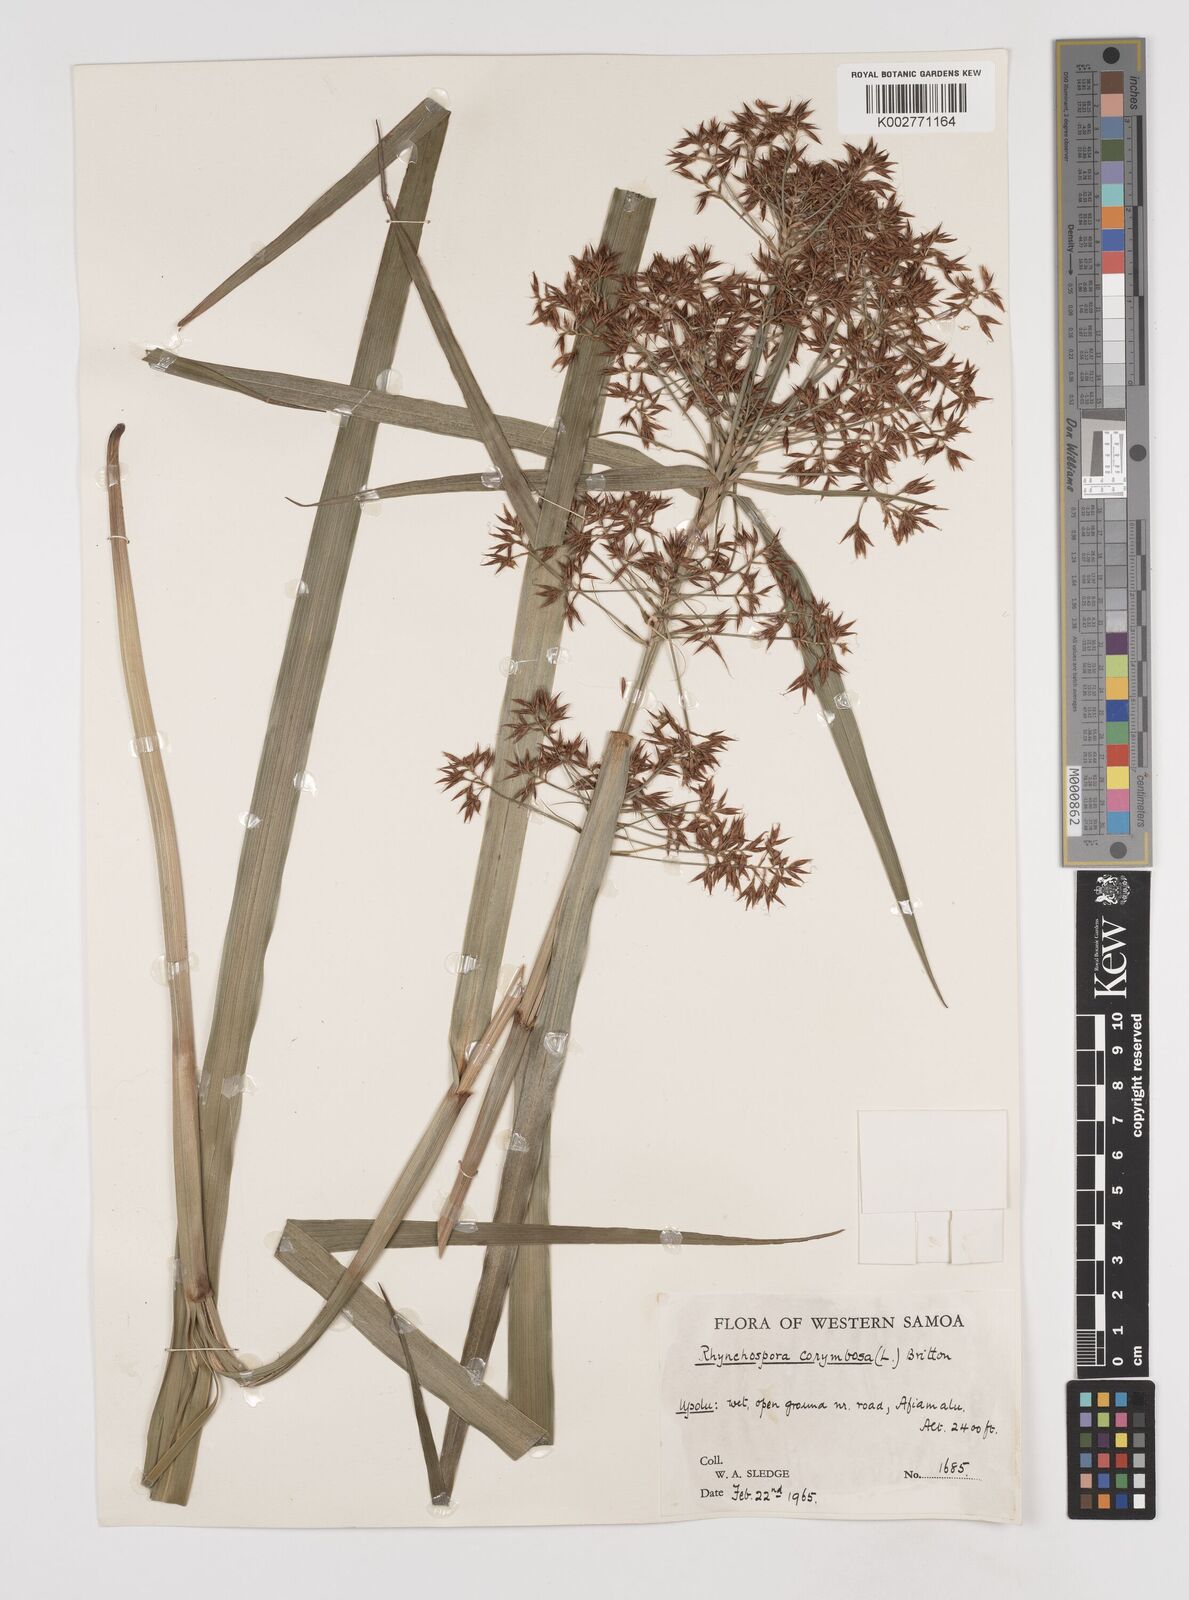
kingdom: Plantae
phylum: Tracheophyta
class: Liliopsida
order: Poales
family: Cyperaceae
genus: Rhynchospora
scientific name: Rhynchospora corymbosa
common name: Golden beak sedge
